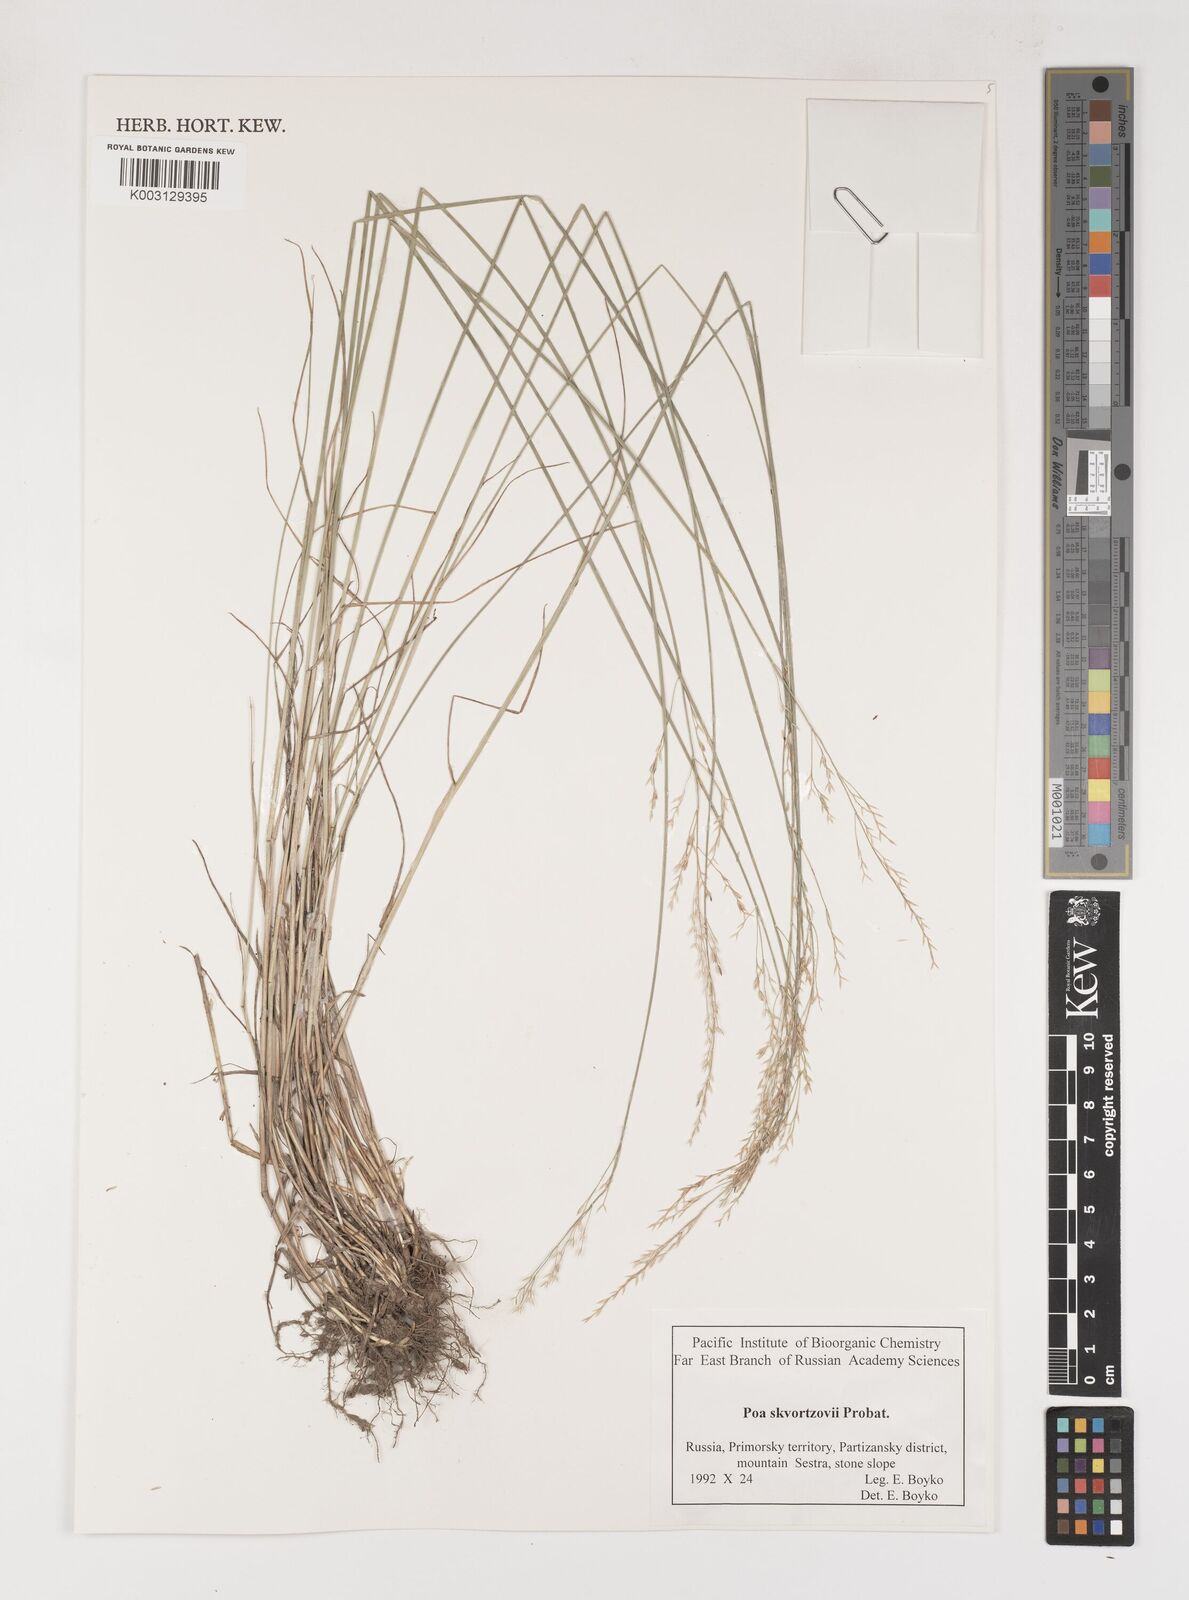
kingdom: Plantae
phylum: Tracheophyta
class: Liliopsida
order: Poales
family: Poaceae
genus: Poa
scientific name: Poa alta
